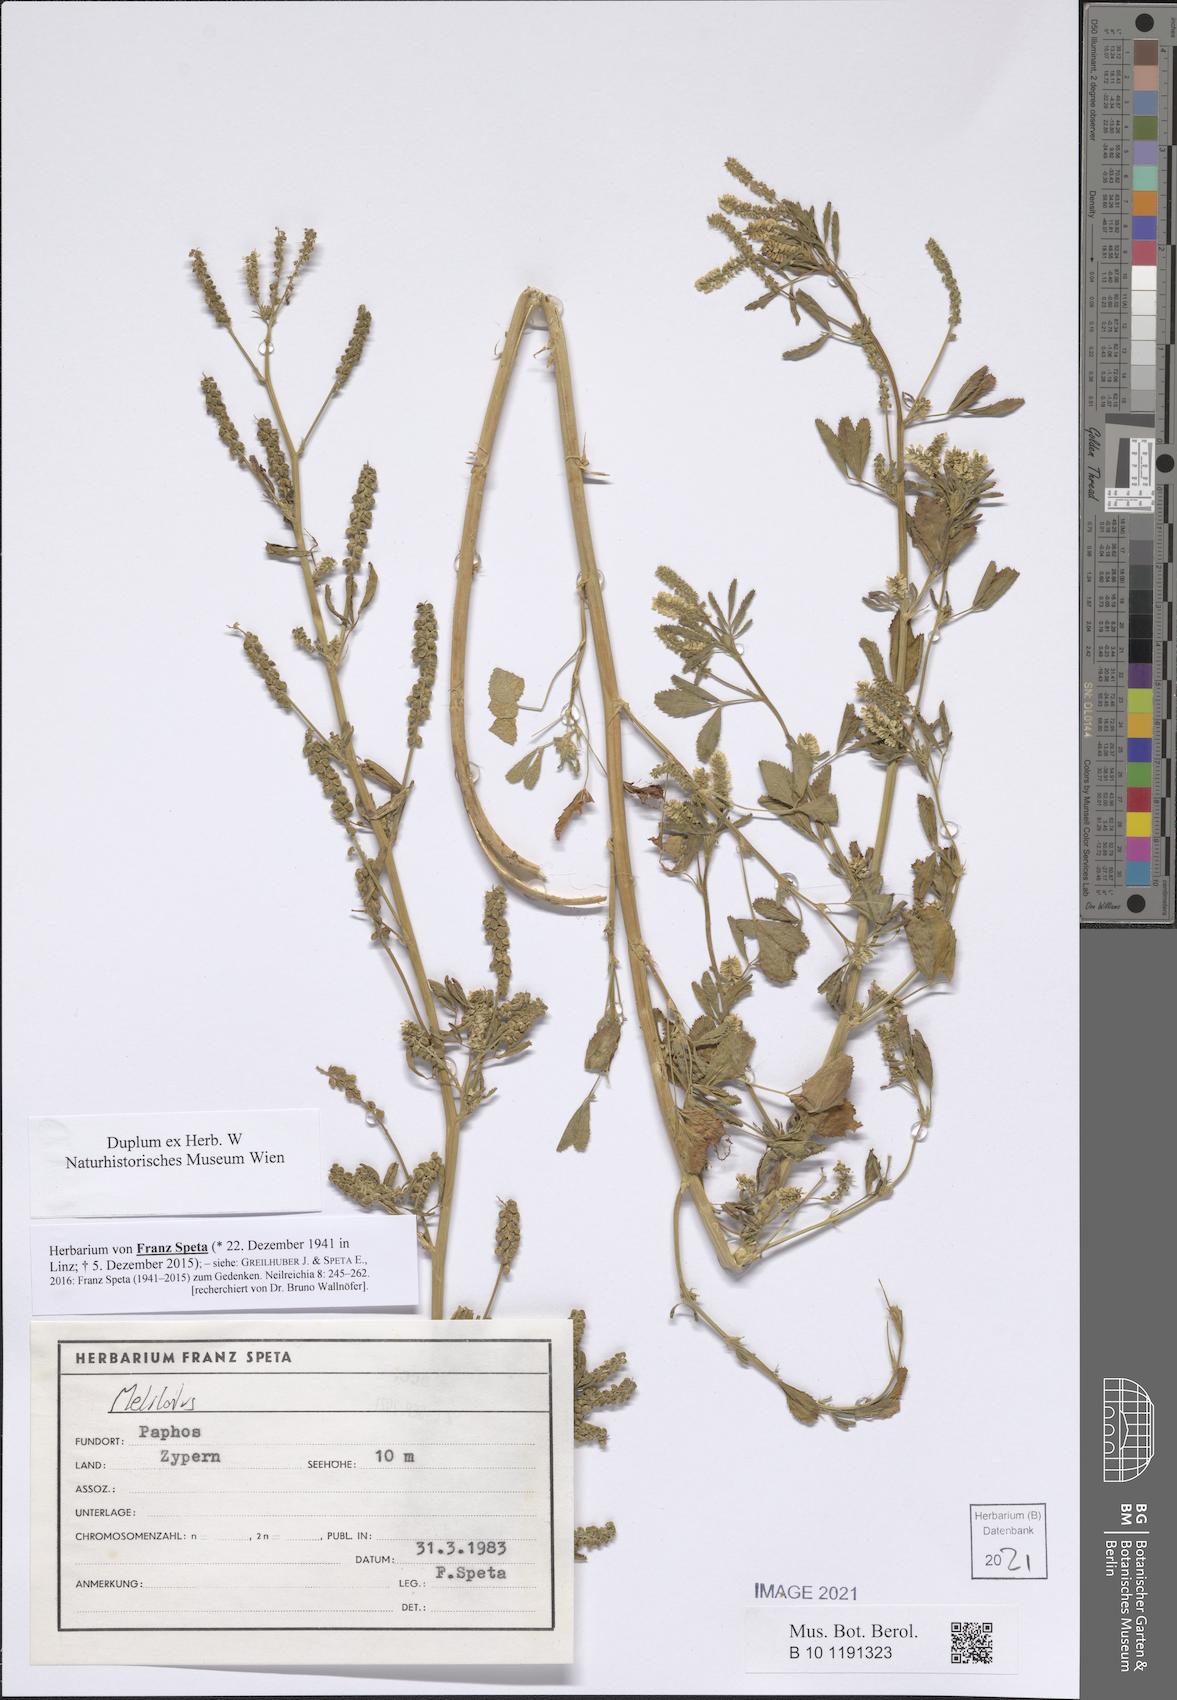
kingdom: Plantae
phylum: Tracheophyta
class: Magnoliopsida
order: Fabales
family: Fabaceae
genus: Melilotus
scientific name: Melilotus
